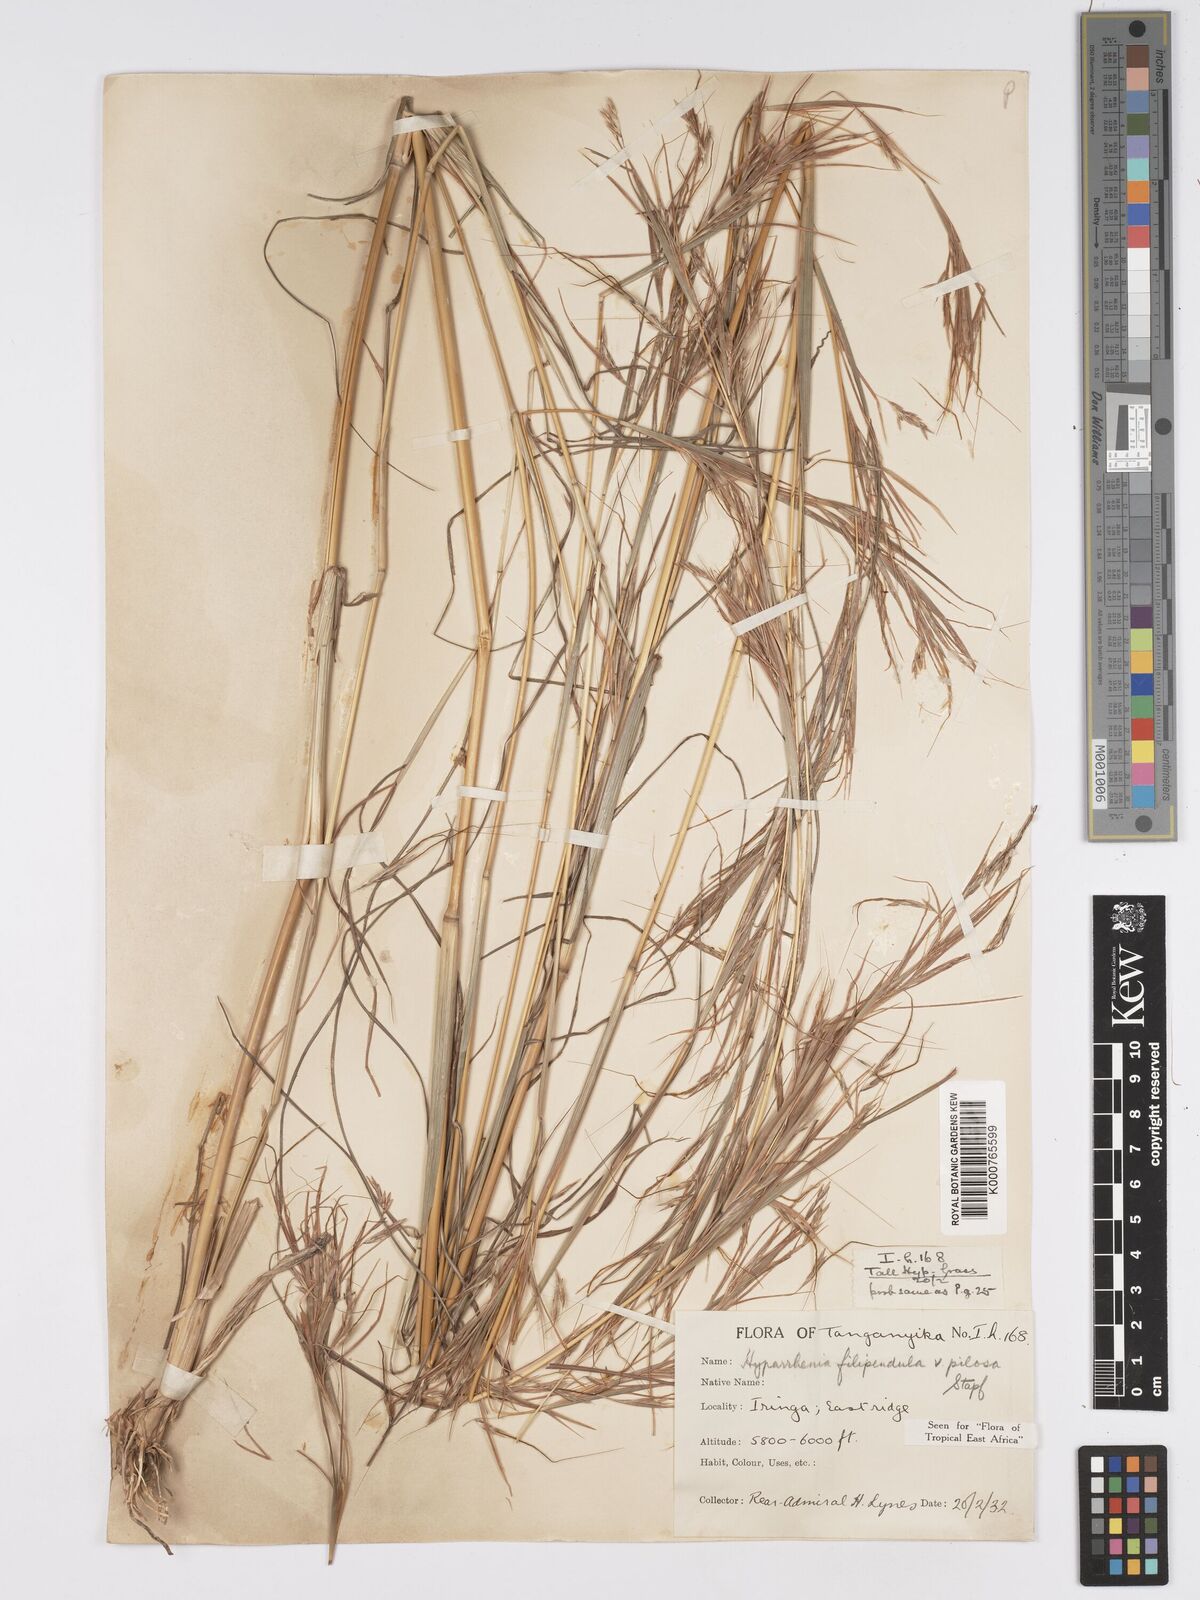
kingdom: Plantae
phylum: Tracheophyta
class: Liliopsida
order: Poales
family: Poaceae
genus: Hyparrhenia
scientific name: Hyparrhenia filipendula
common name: Tambookie grass
